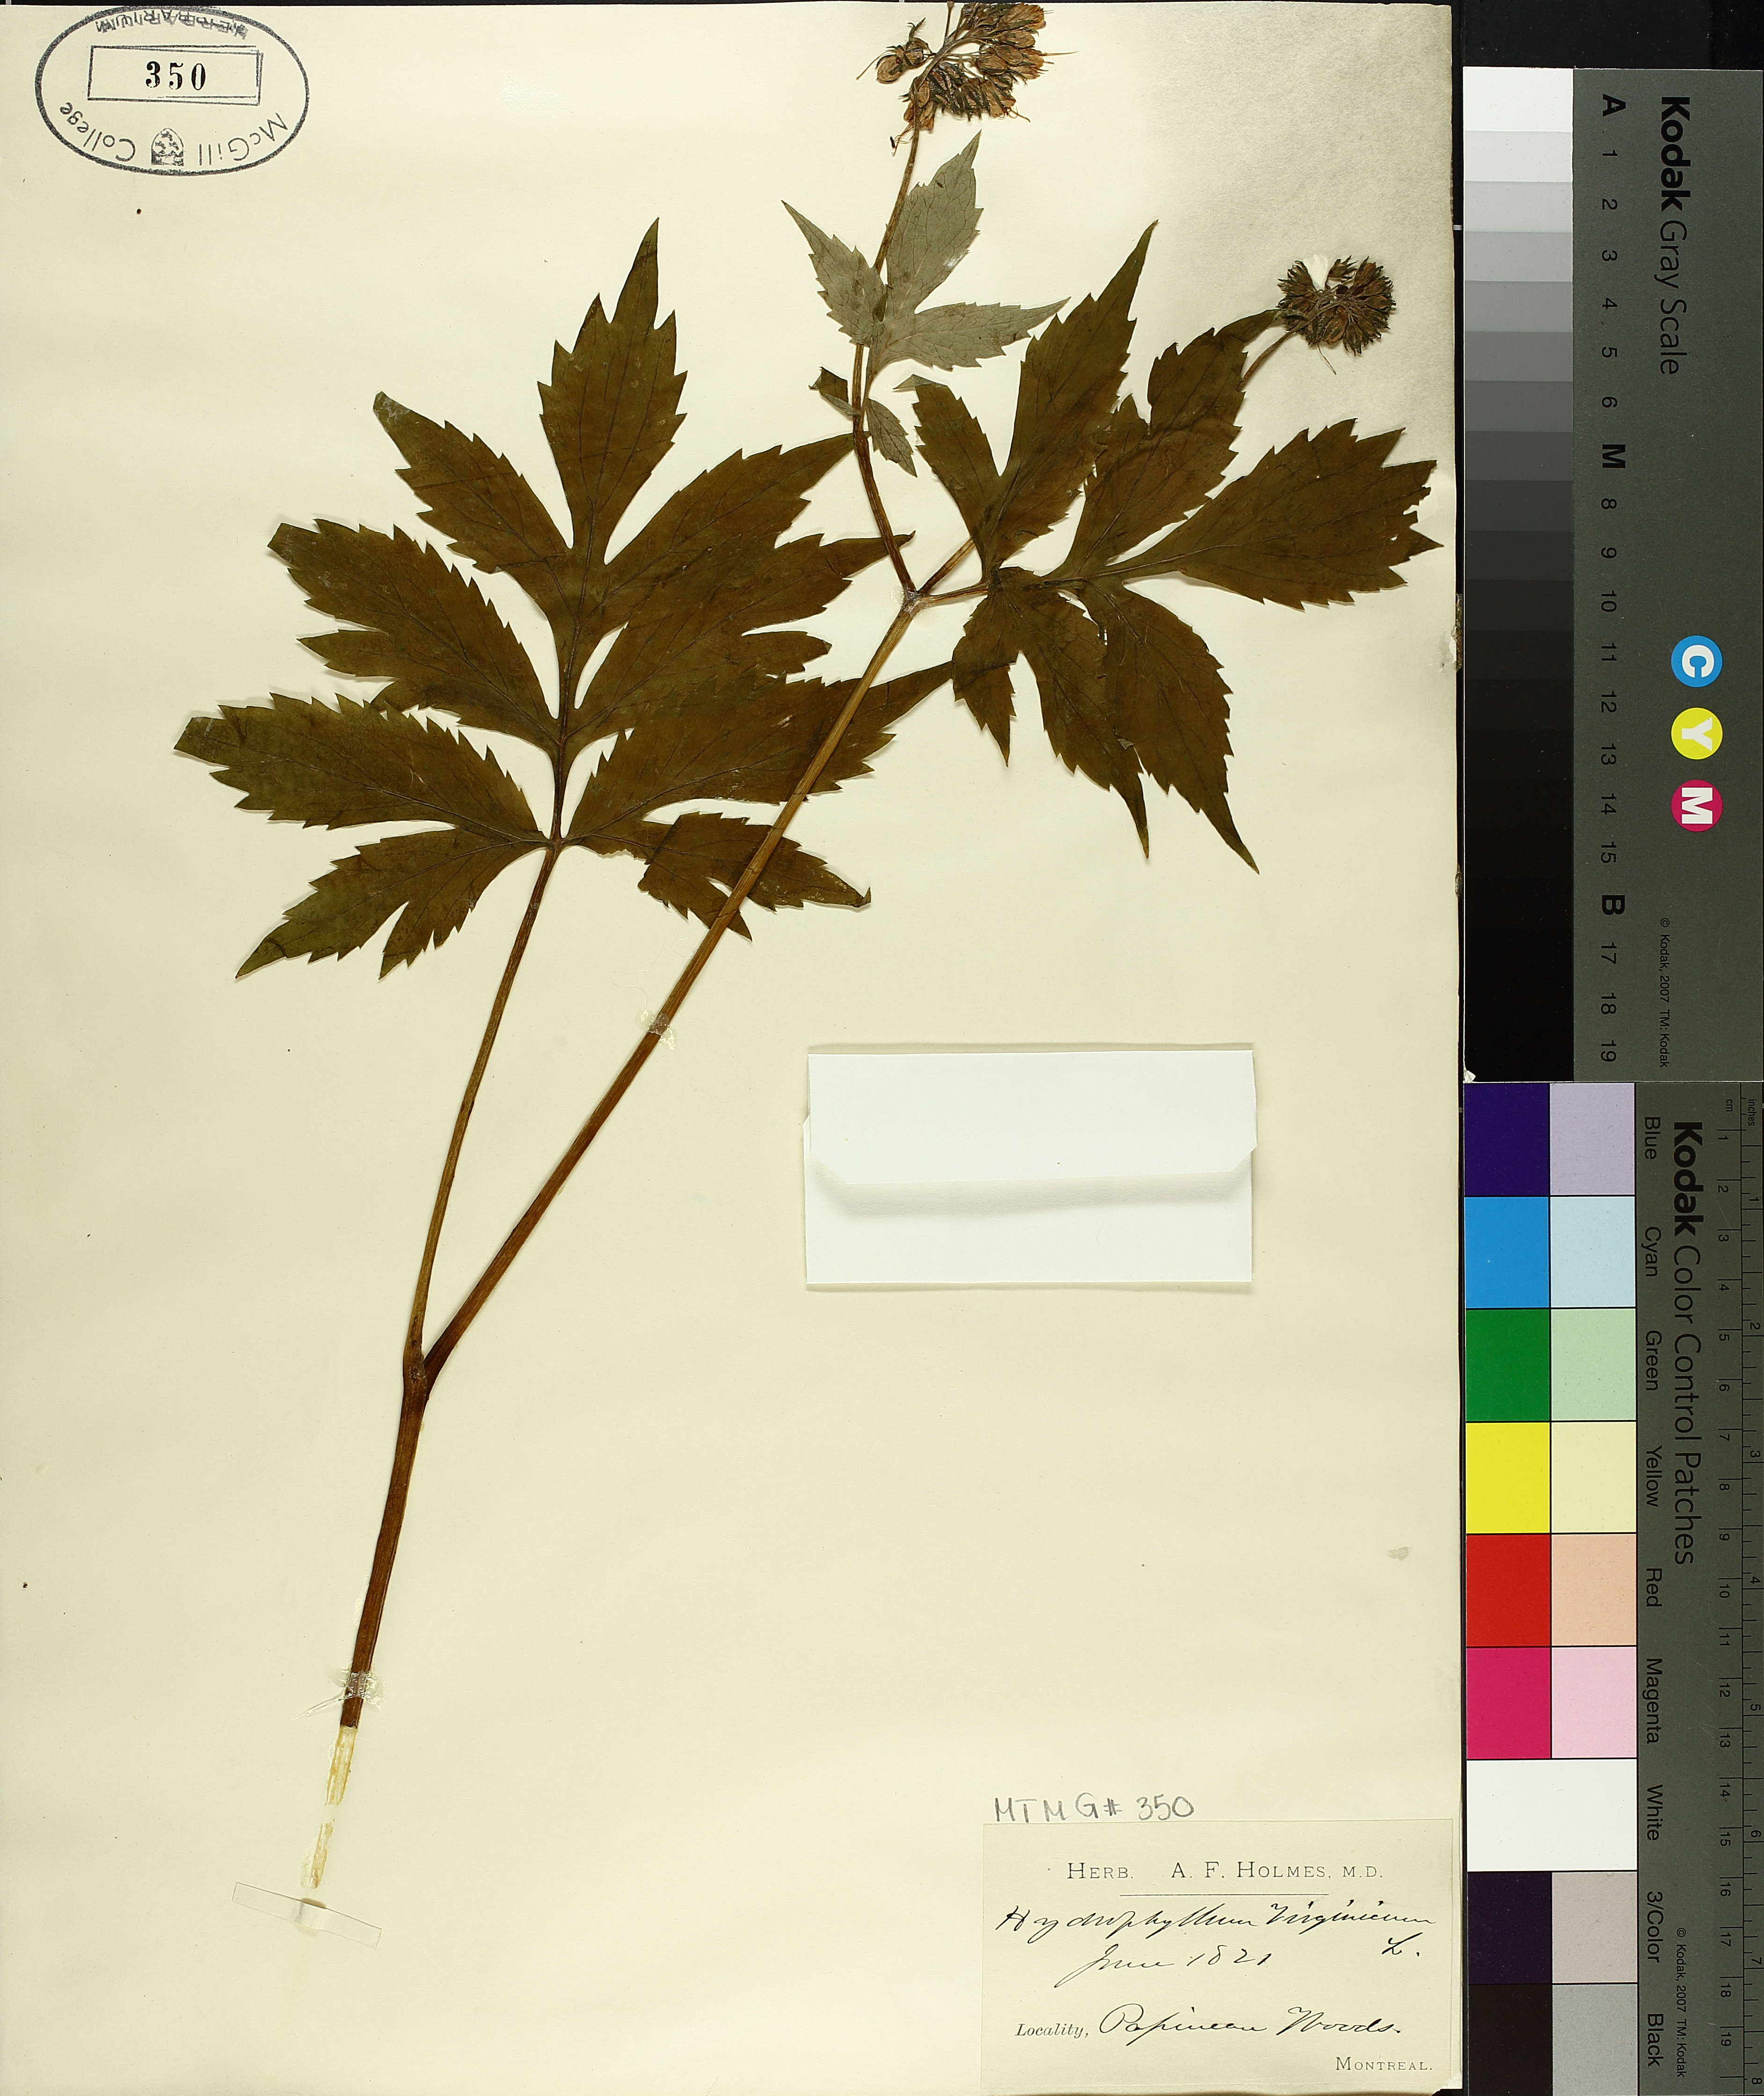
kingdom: Plantae
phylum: Tracheophyta
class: Magnoliopsida
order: Boraginales
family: Hydrophyllaceae
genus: Hydrophyllum
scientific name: Hydrophyllum virginianum
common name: Virginia waterleaf
